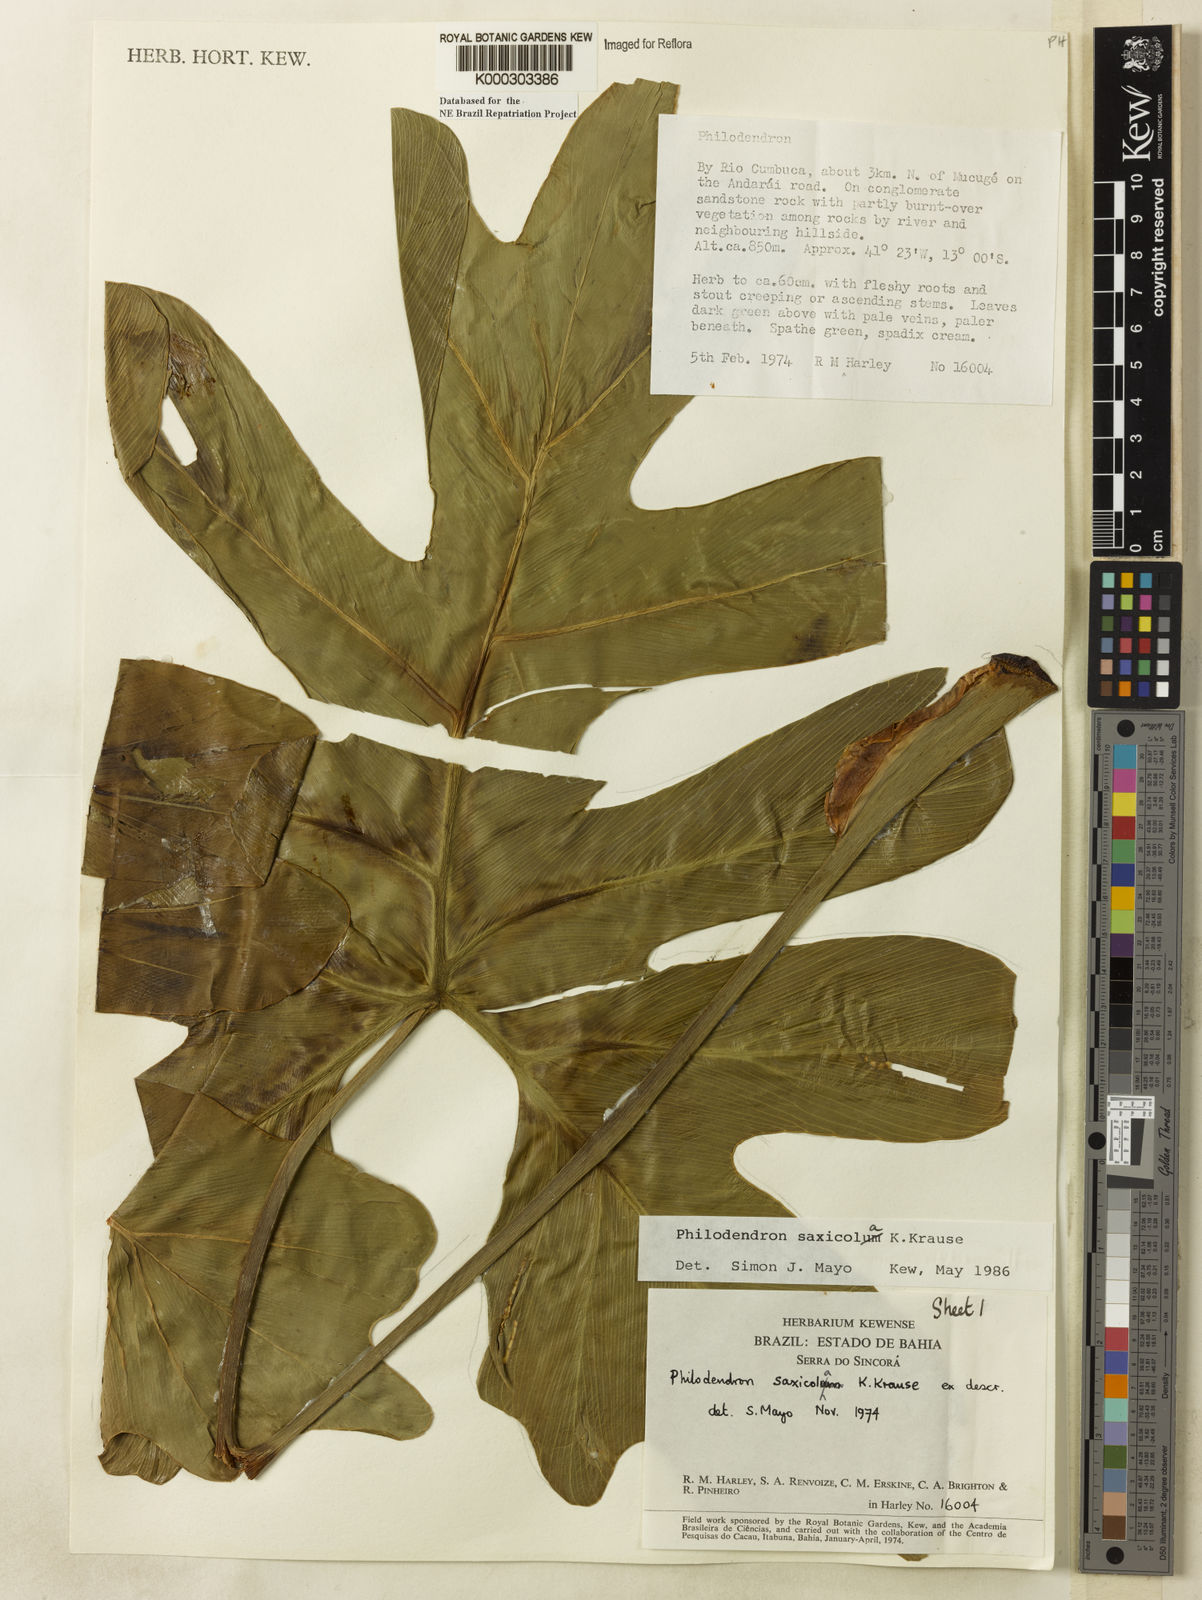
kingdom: Plantae
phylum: Tracheophyta
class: Liliopsida
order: Alismatales
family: Araceae
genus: Thaumatophyllum
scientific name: Thaumatophyllum saxicola
